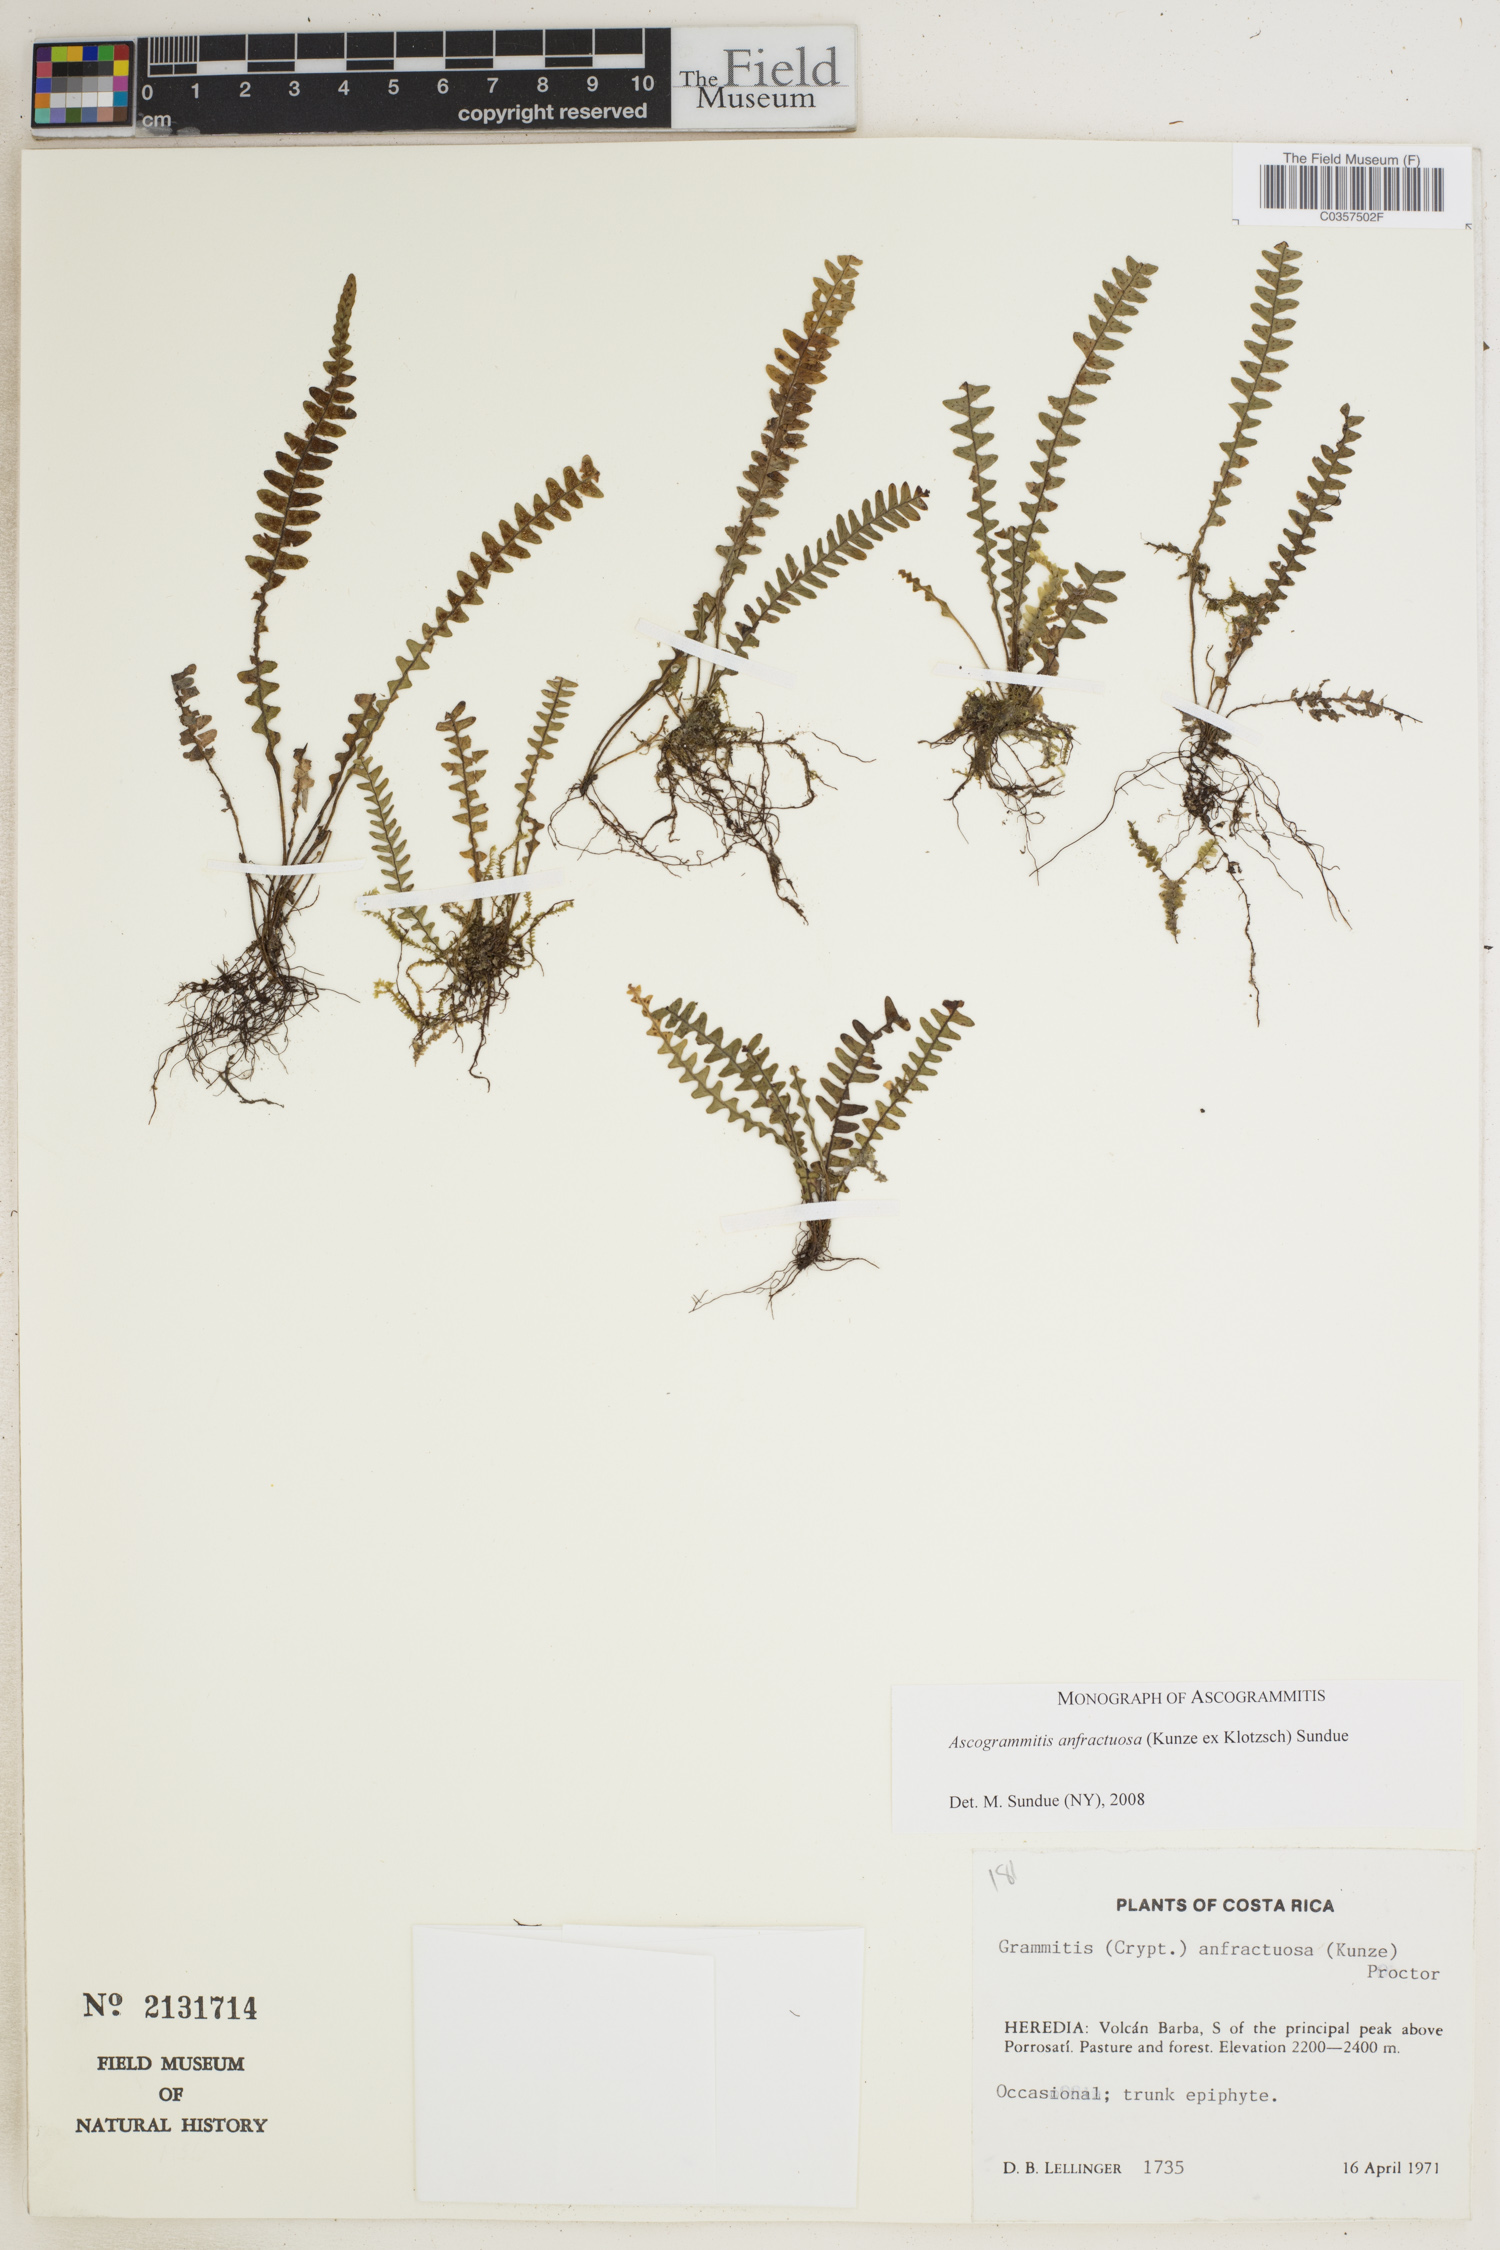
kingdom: Plantae
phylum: Tracheophyta
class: Polypodiopsida
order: Polypodiales
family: Polypodiaceae
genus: Ascogrammitis
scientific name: Ascogrammitis anfractuosa
